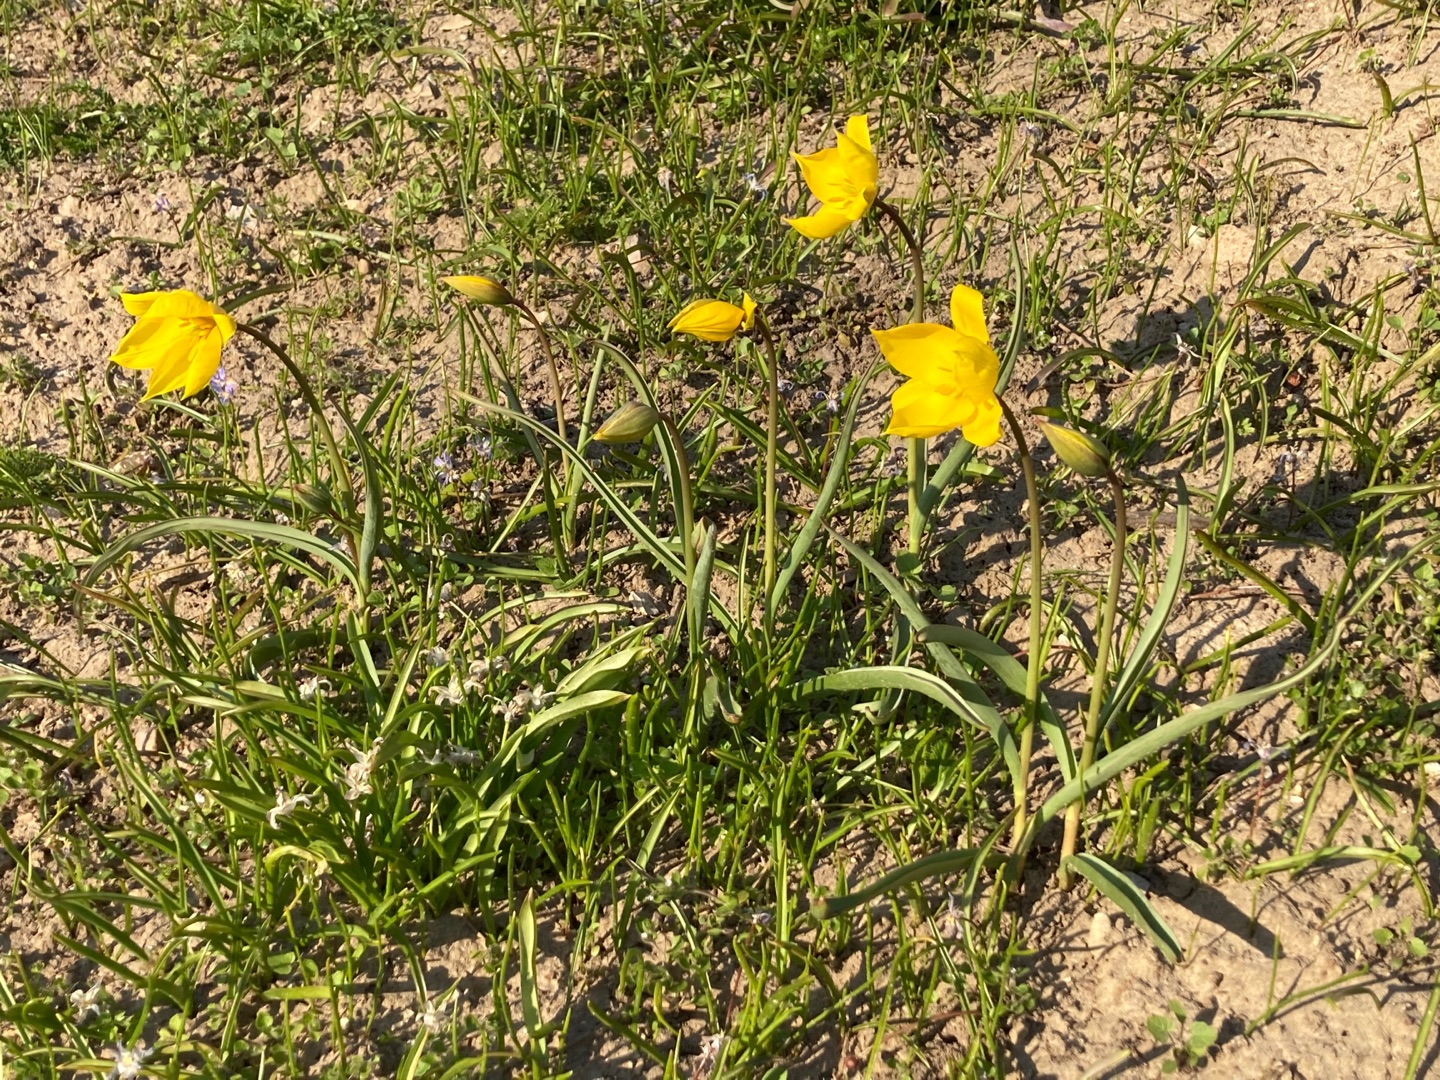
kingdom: Plantae
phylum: Tracheophyta
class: Liliopsida
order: Liliales
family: Liliaceae
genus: Tulipa
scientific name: Tulipa sylvestris
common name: Vild tulipan
